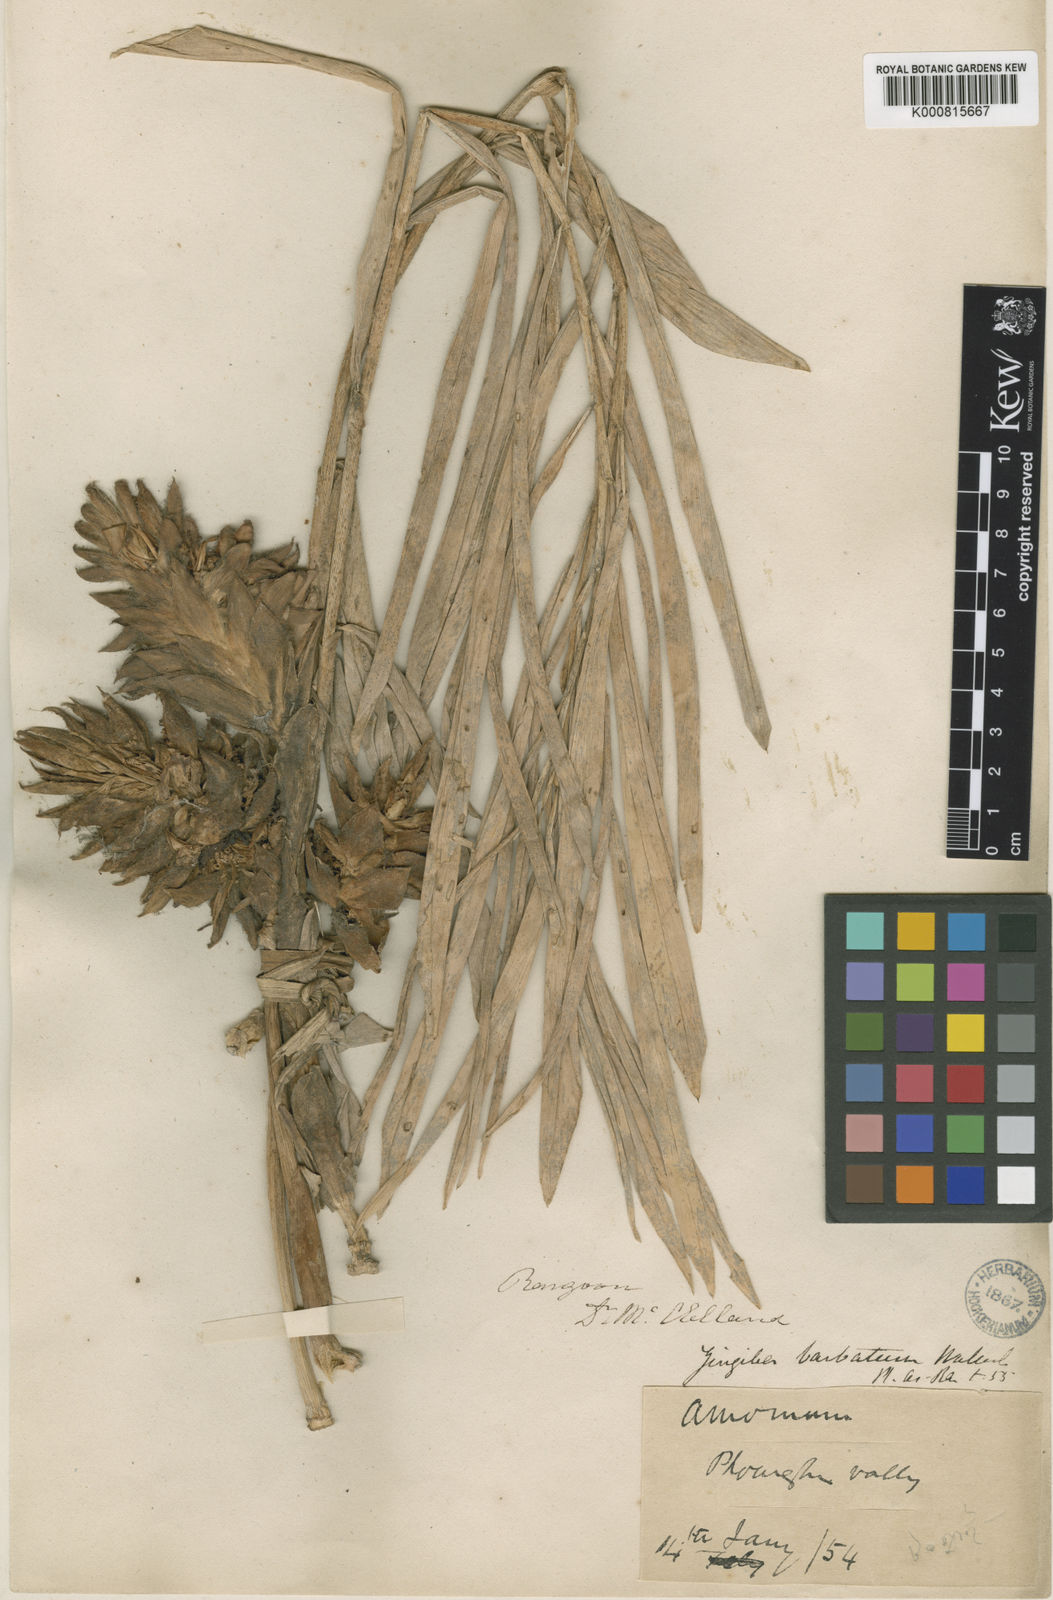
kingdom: Plantae
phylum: Tracheophyta
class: Liliopsida
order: Zingiberales
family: Zingiberaceae
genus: Zingiber
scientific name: Zingiber barbatum
